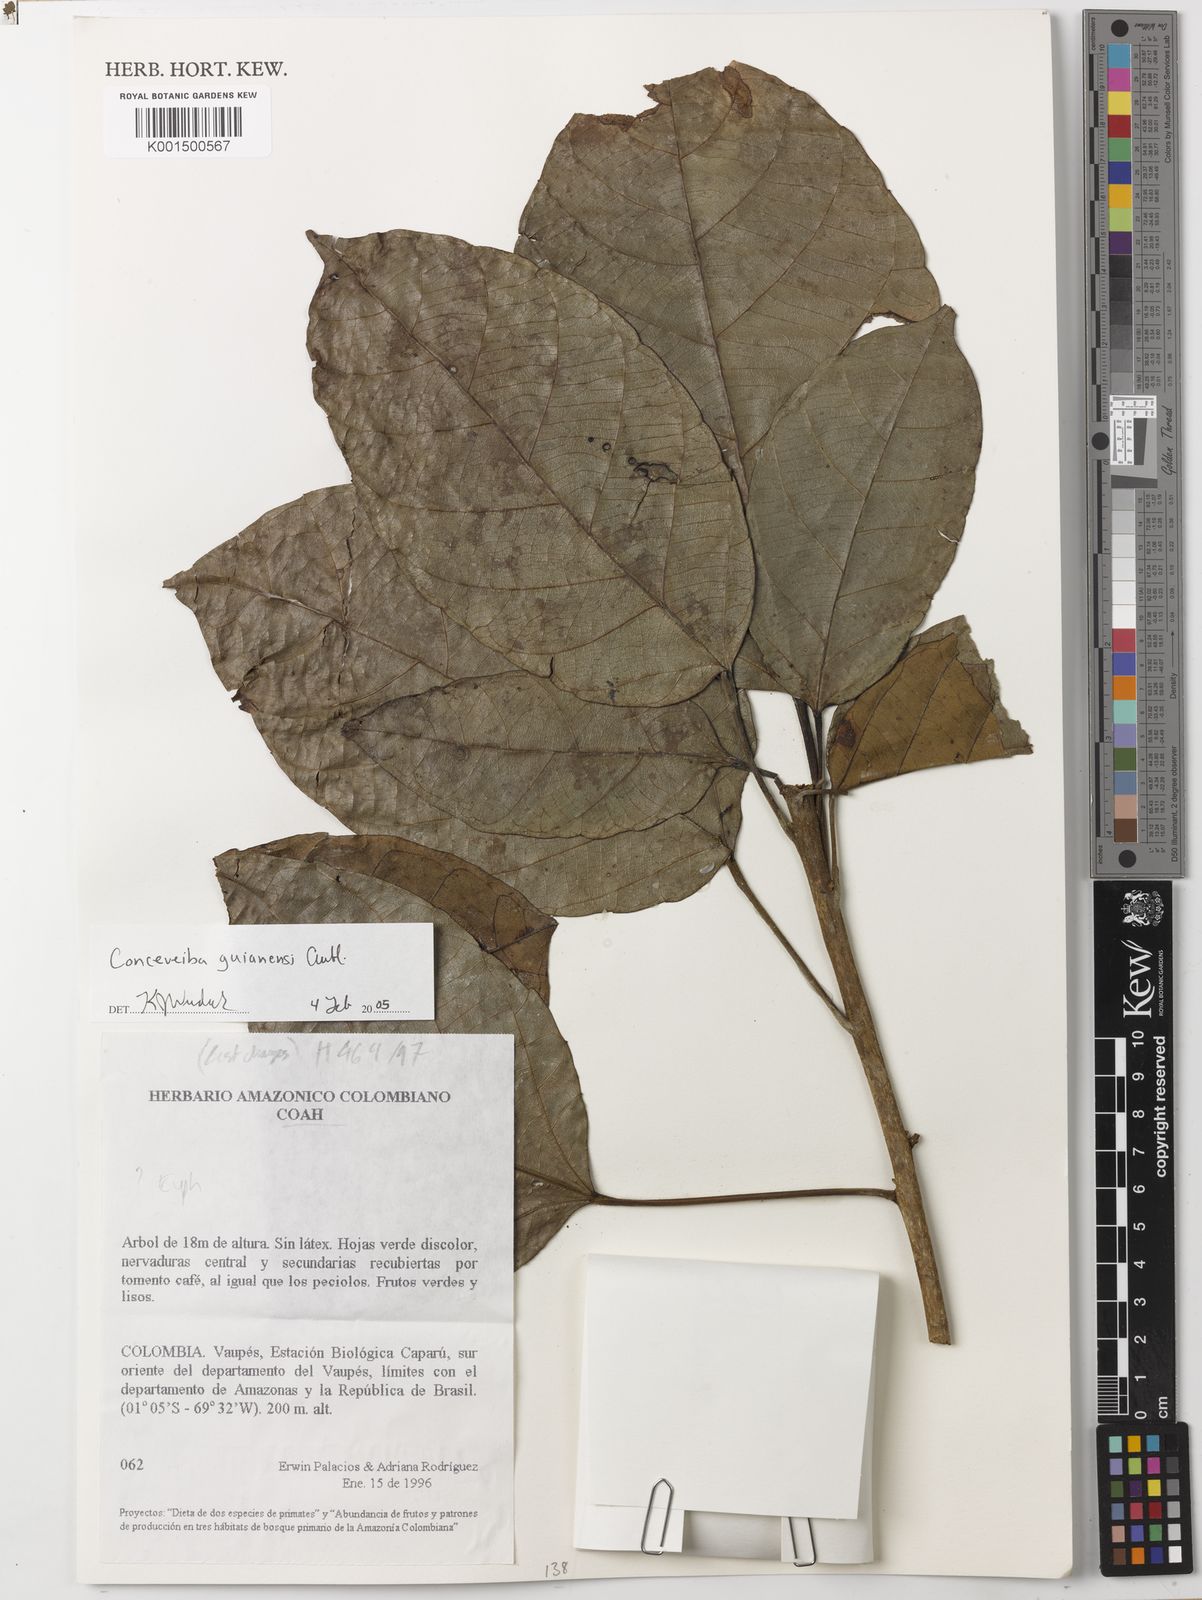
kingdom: Plantae
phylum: Tracheophyta
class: Magnoliopsida
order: Malpighiales
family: Euphorbiaceae
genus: Conceveiba
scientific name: Conceveiba guianensis
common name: Poatoru
